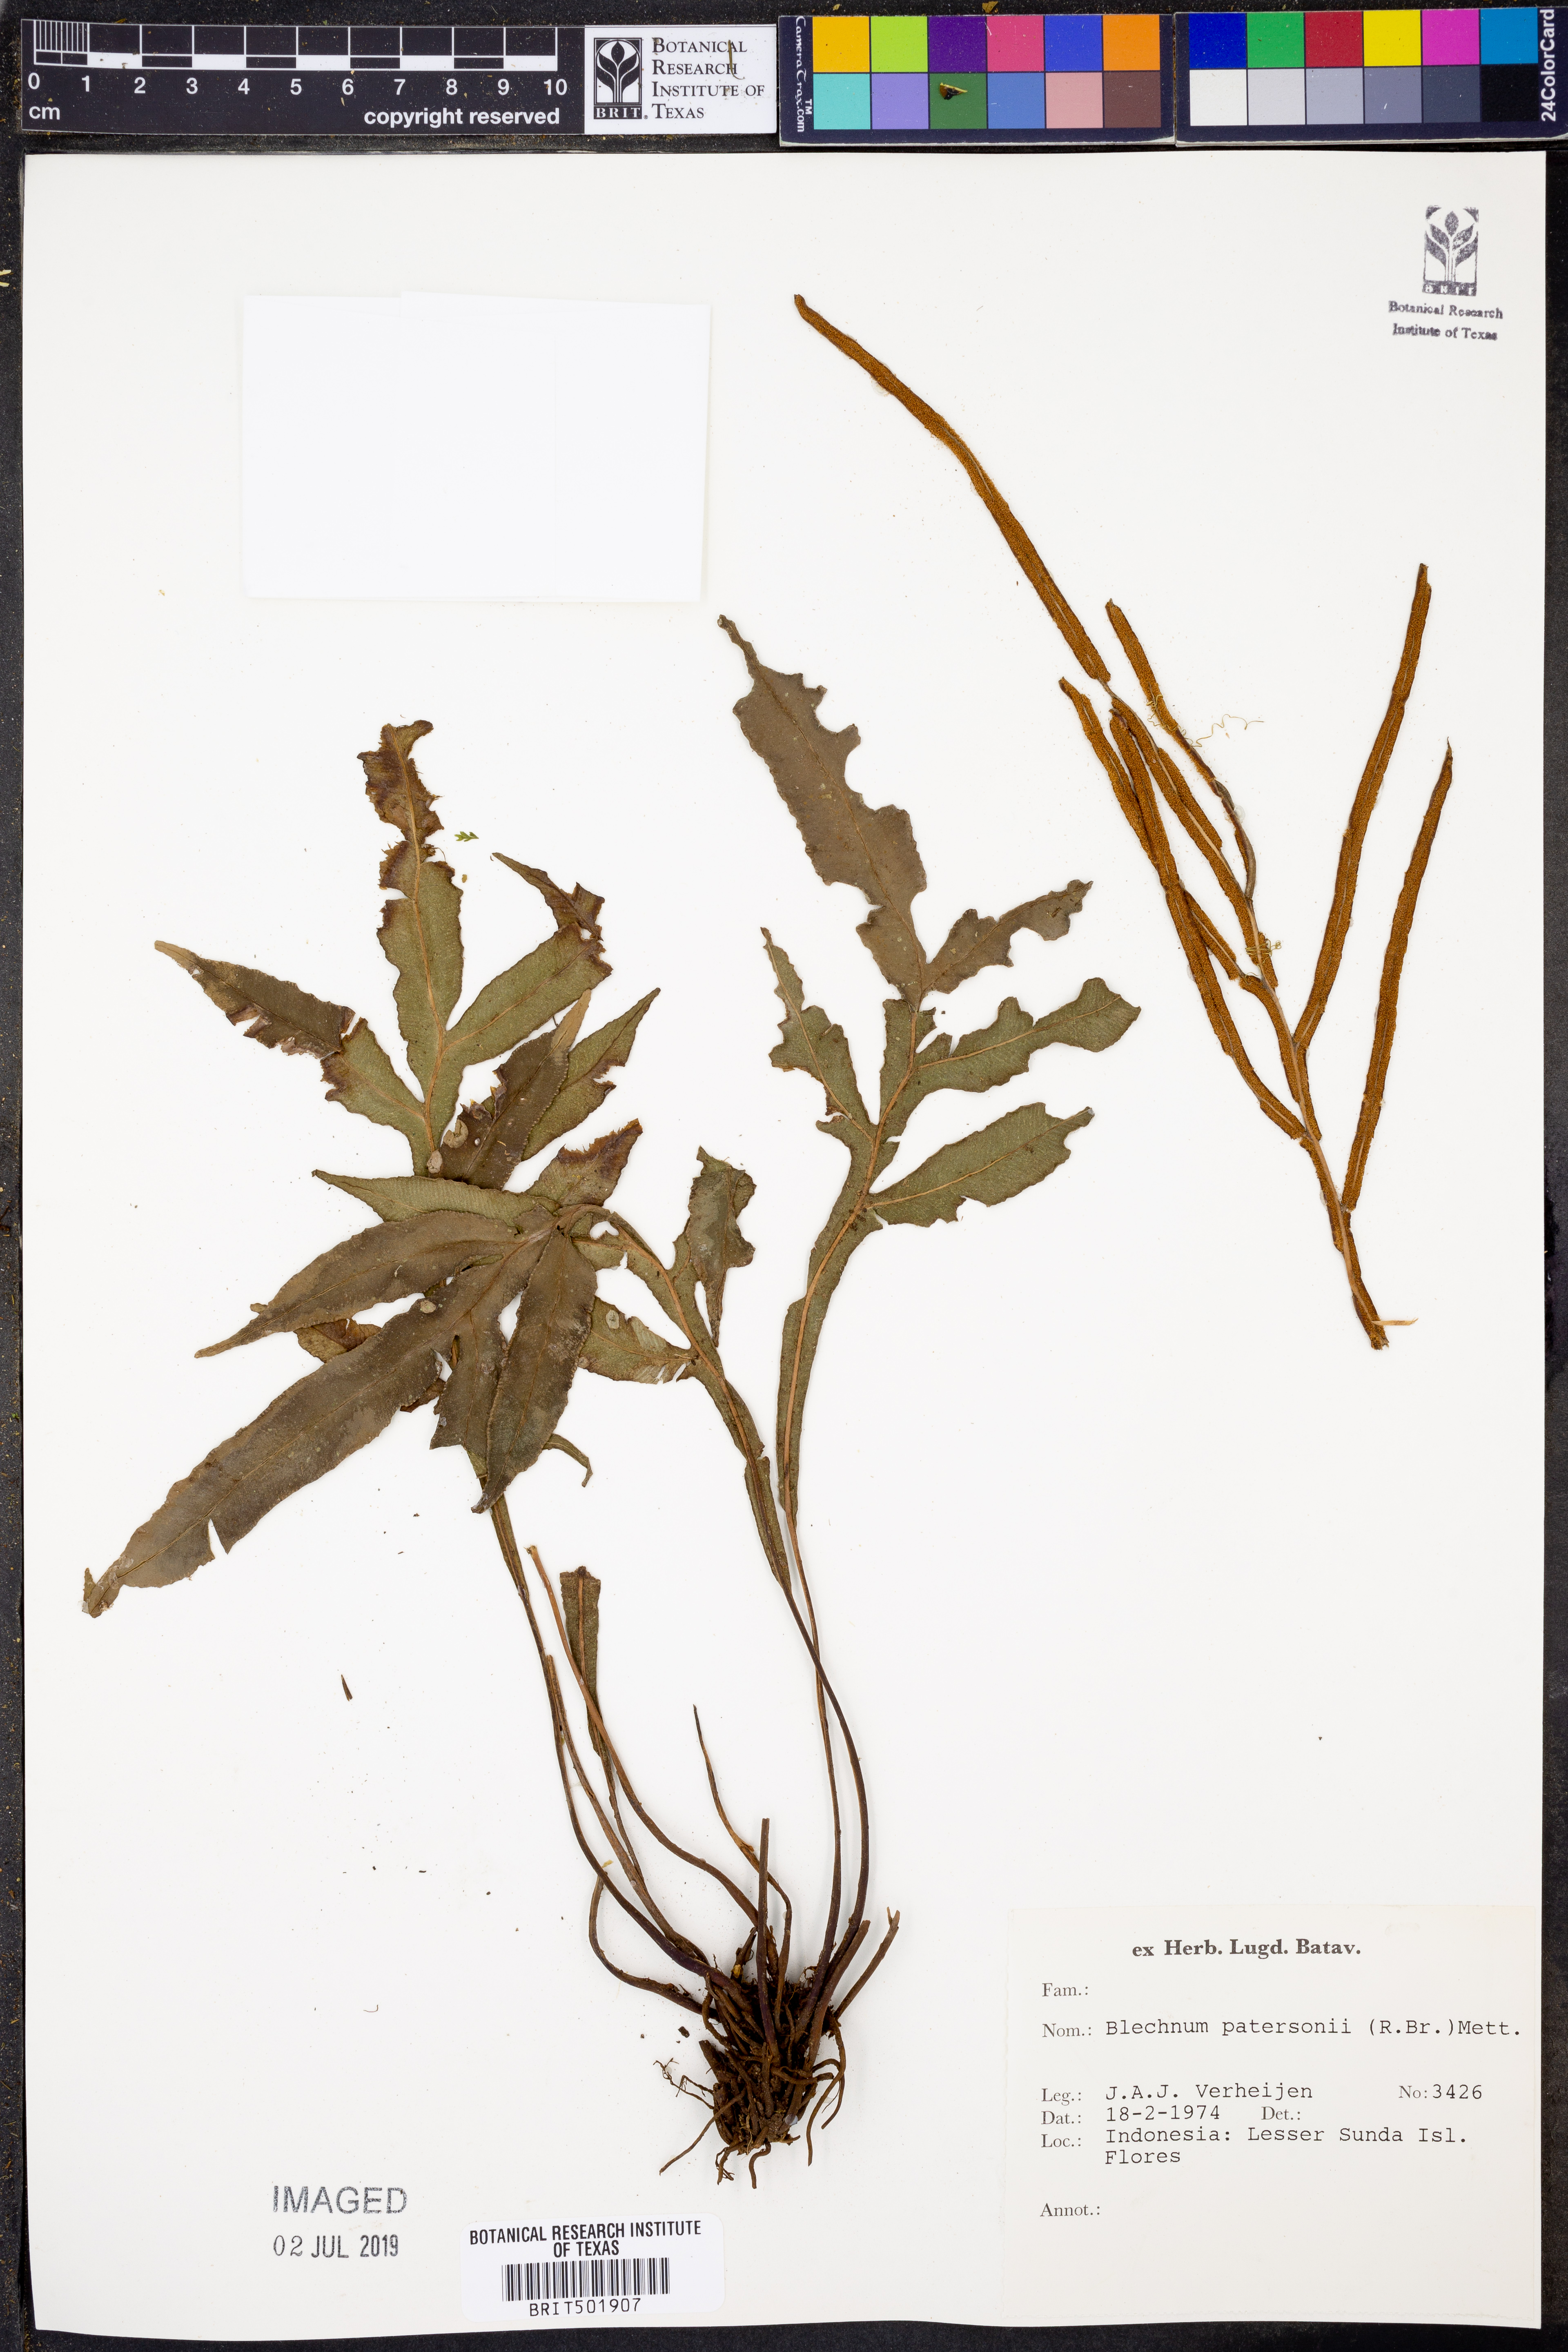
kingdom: Plantae
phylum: Tracheophyta
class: Polypodiopsida
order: Polypodiales
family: Blechnaceae
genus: Austroblechnum
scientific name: Austroblechnum patersonii
